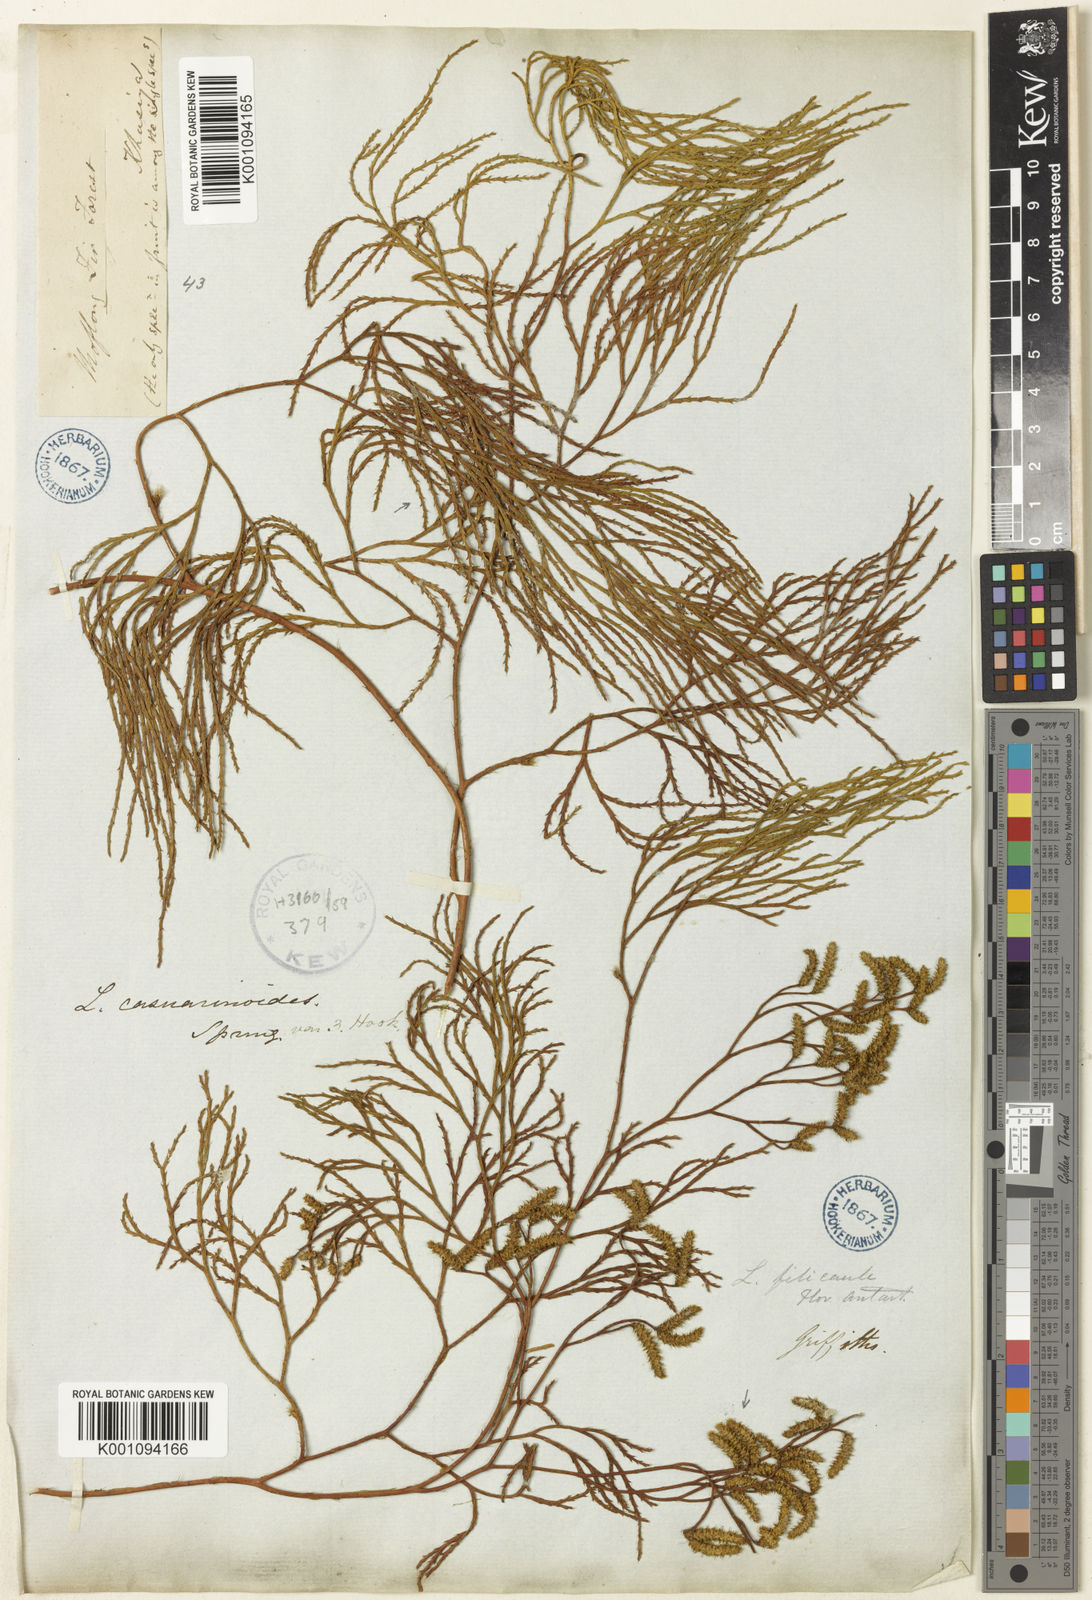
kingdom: Plantae
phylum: Tracheophyta
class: Lycopodiopsida
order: Lycopodiales
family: Lycopodiaceae
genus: Lycopodiastrum
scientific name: Lycopodiastrum casuarinoides
